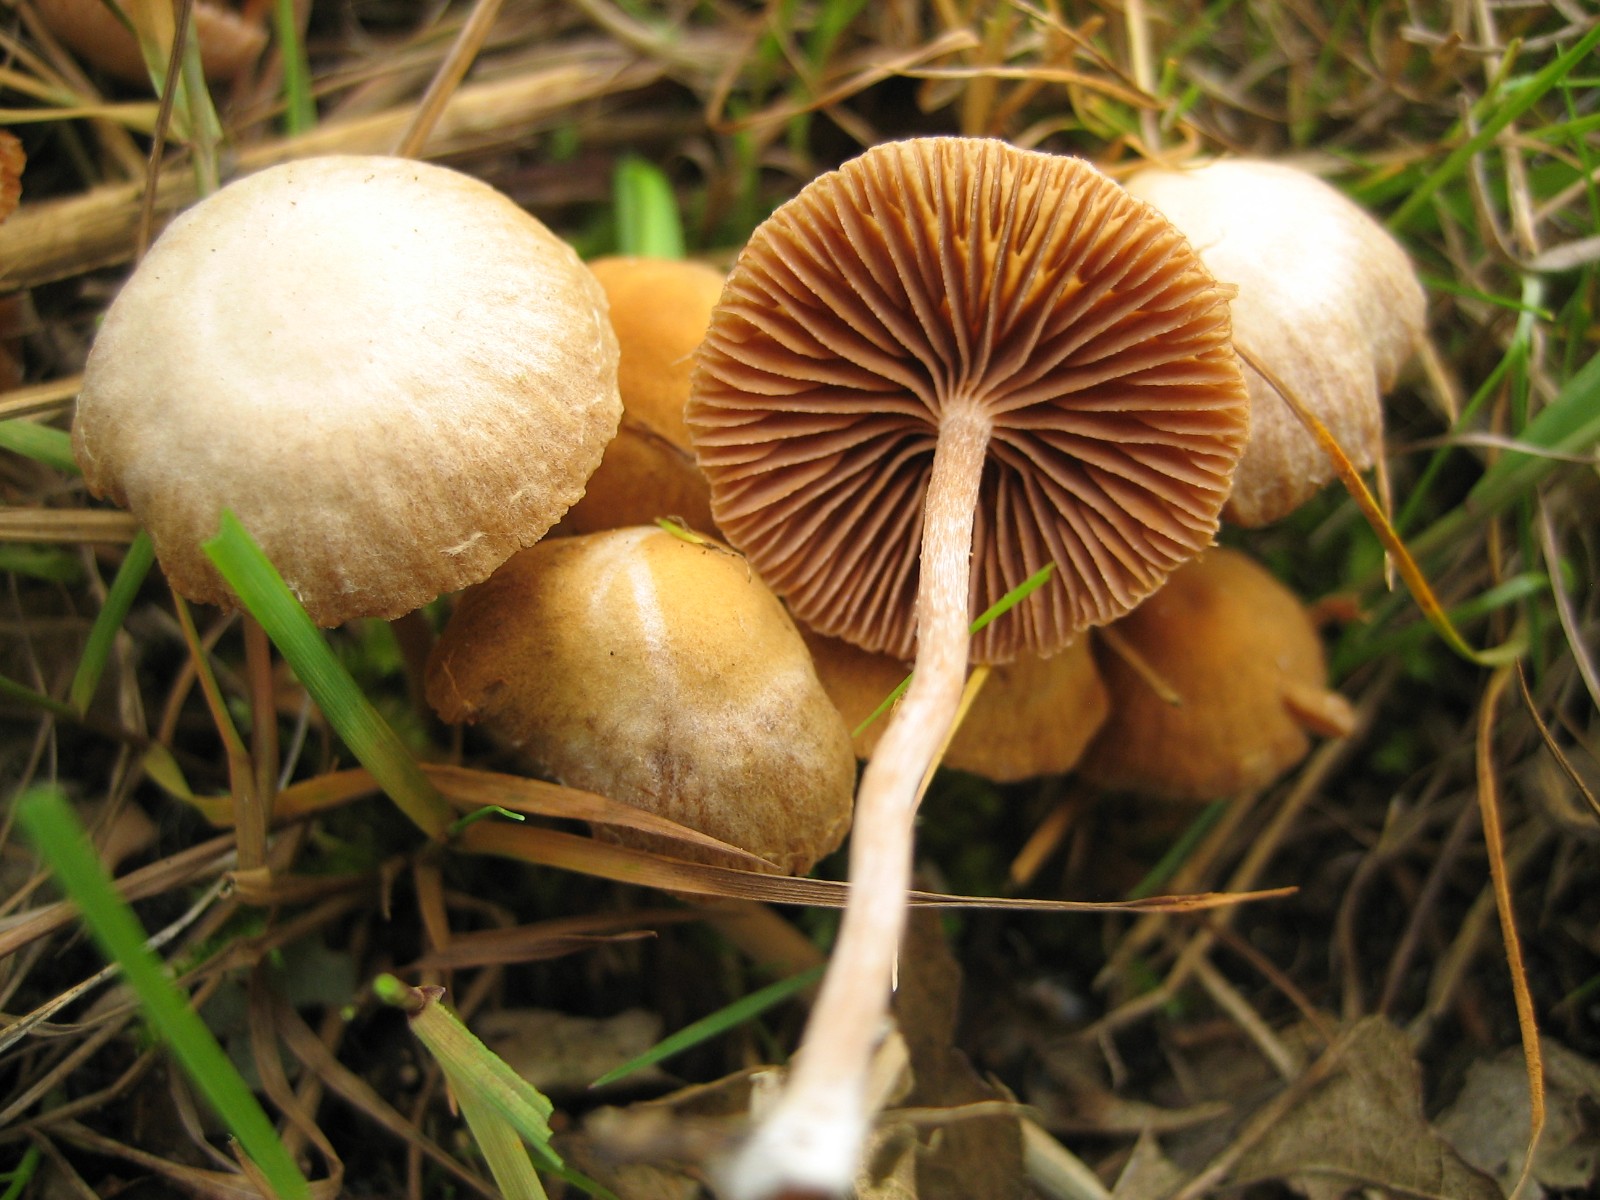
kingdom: Fungi
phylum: Basidiomycota
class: Agaricomycetes
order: Agaricales
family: Tubariaceae
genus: Tubaria
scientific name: Tubaria furfuracea
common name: kliddet fnughat
